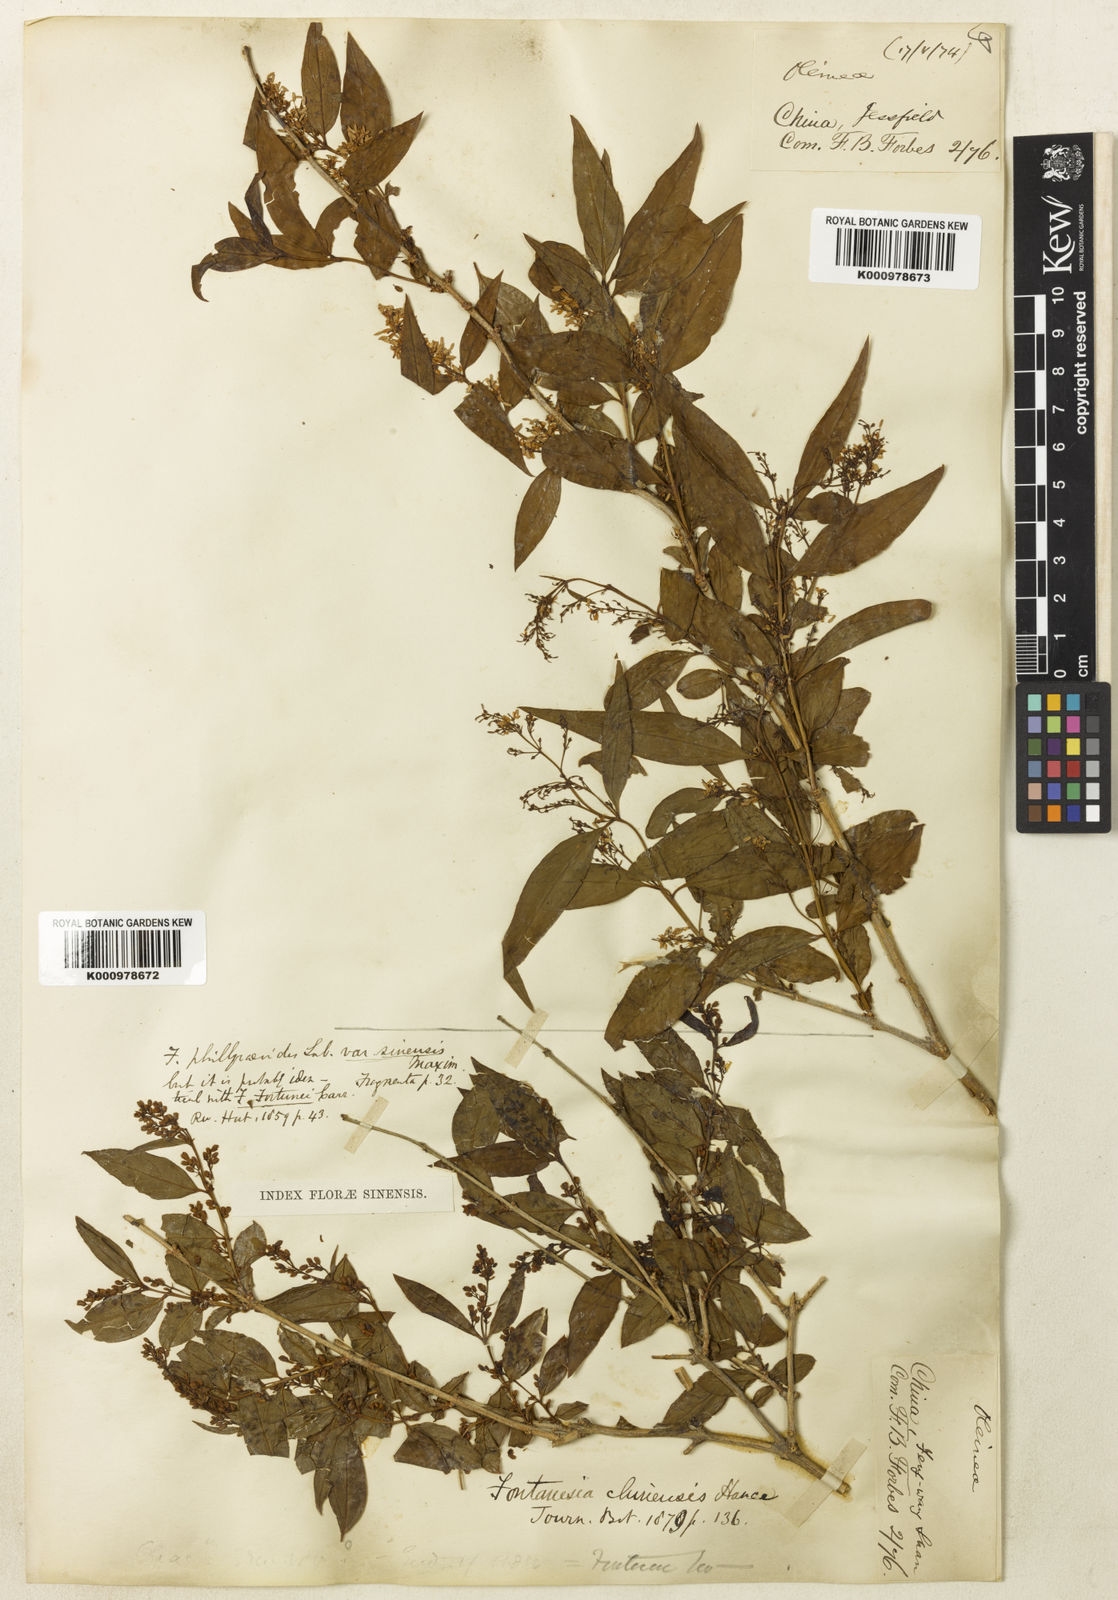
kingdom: Plantae
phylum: Tracheophyta
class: Magnoliopsida
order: Lamiales
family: Oleaceae
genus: Fontanesia
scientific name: Fontanesia fortunei
